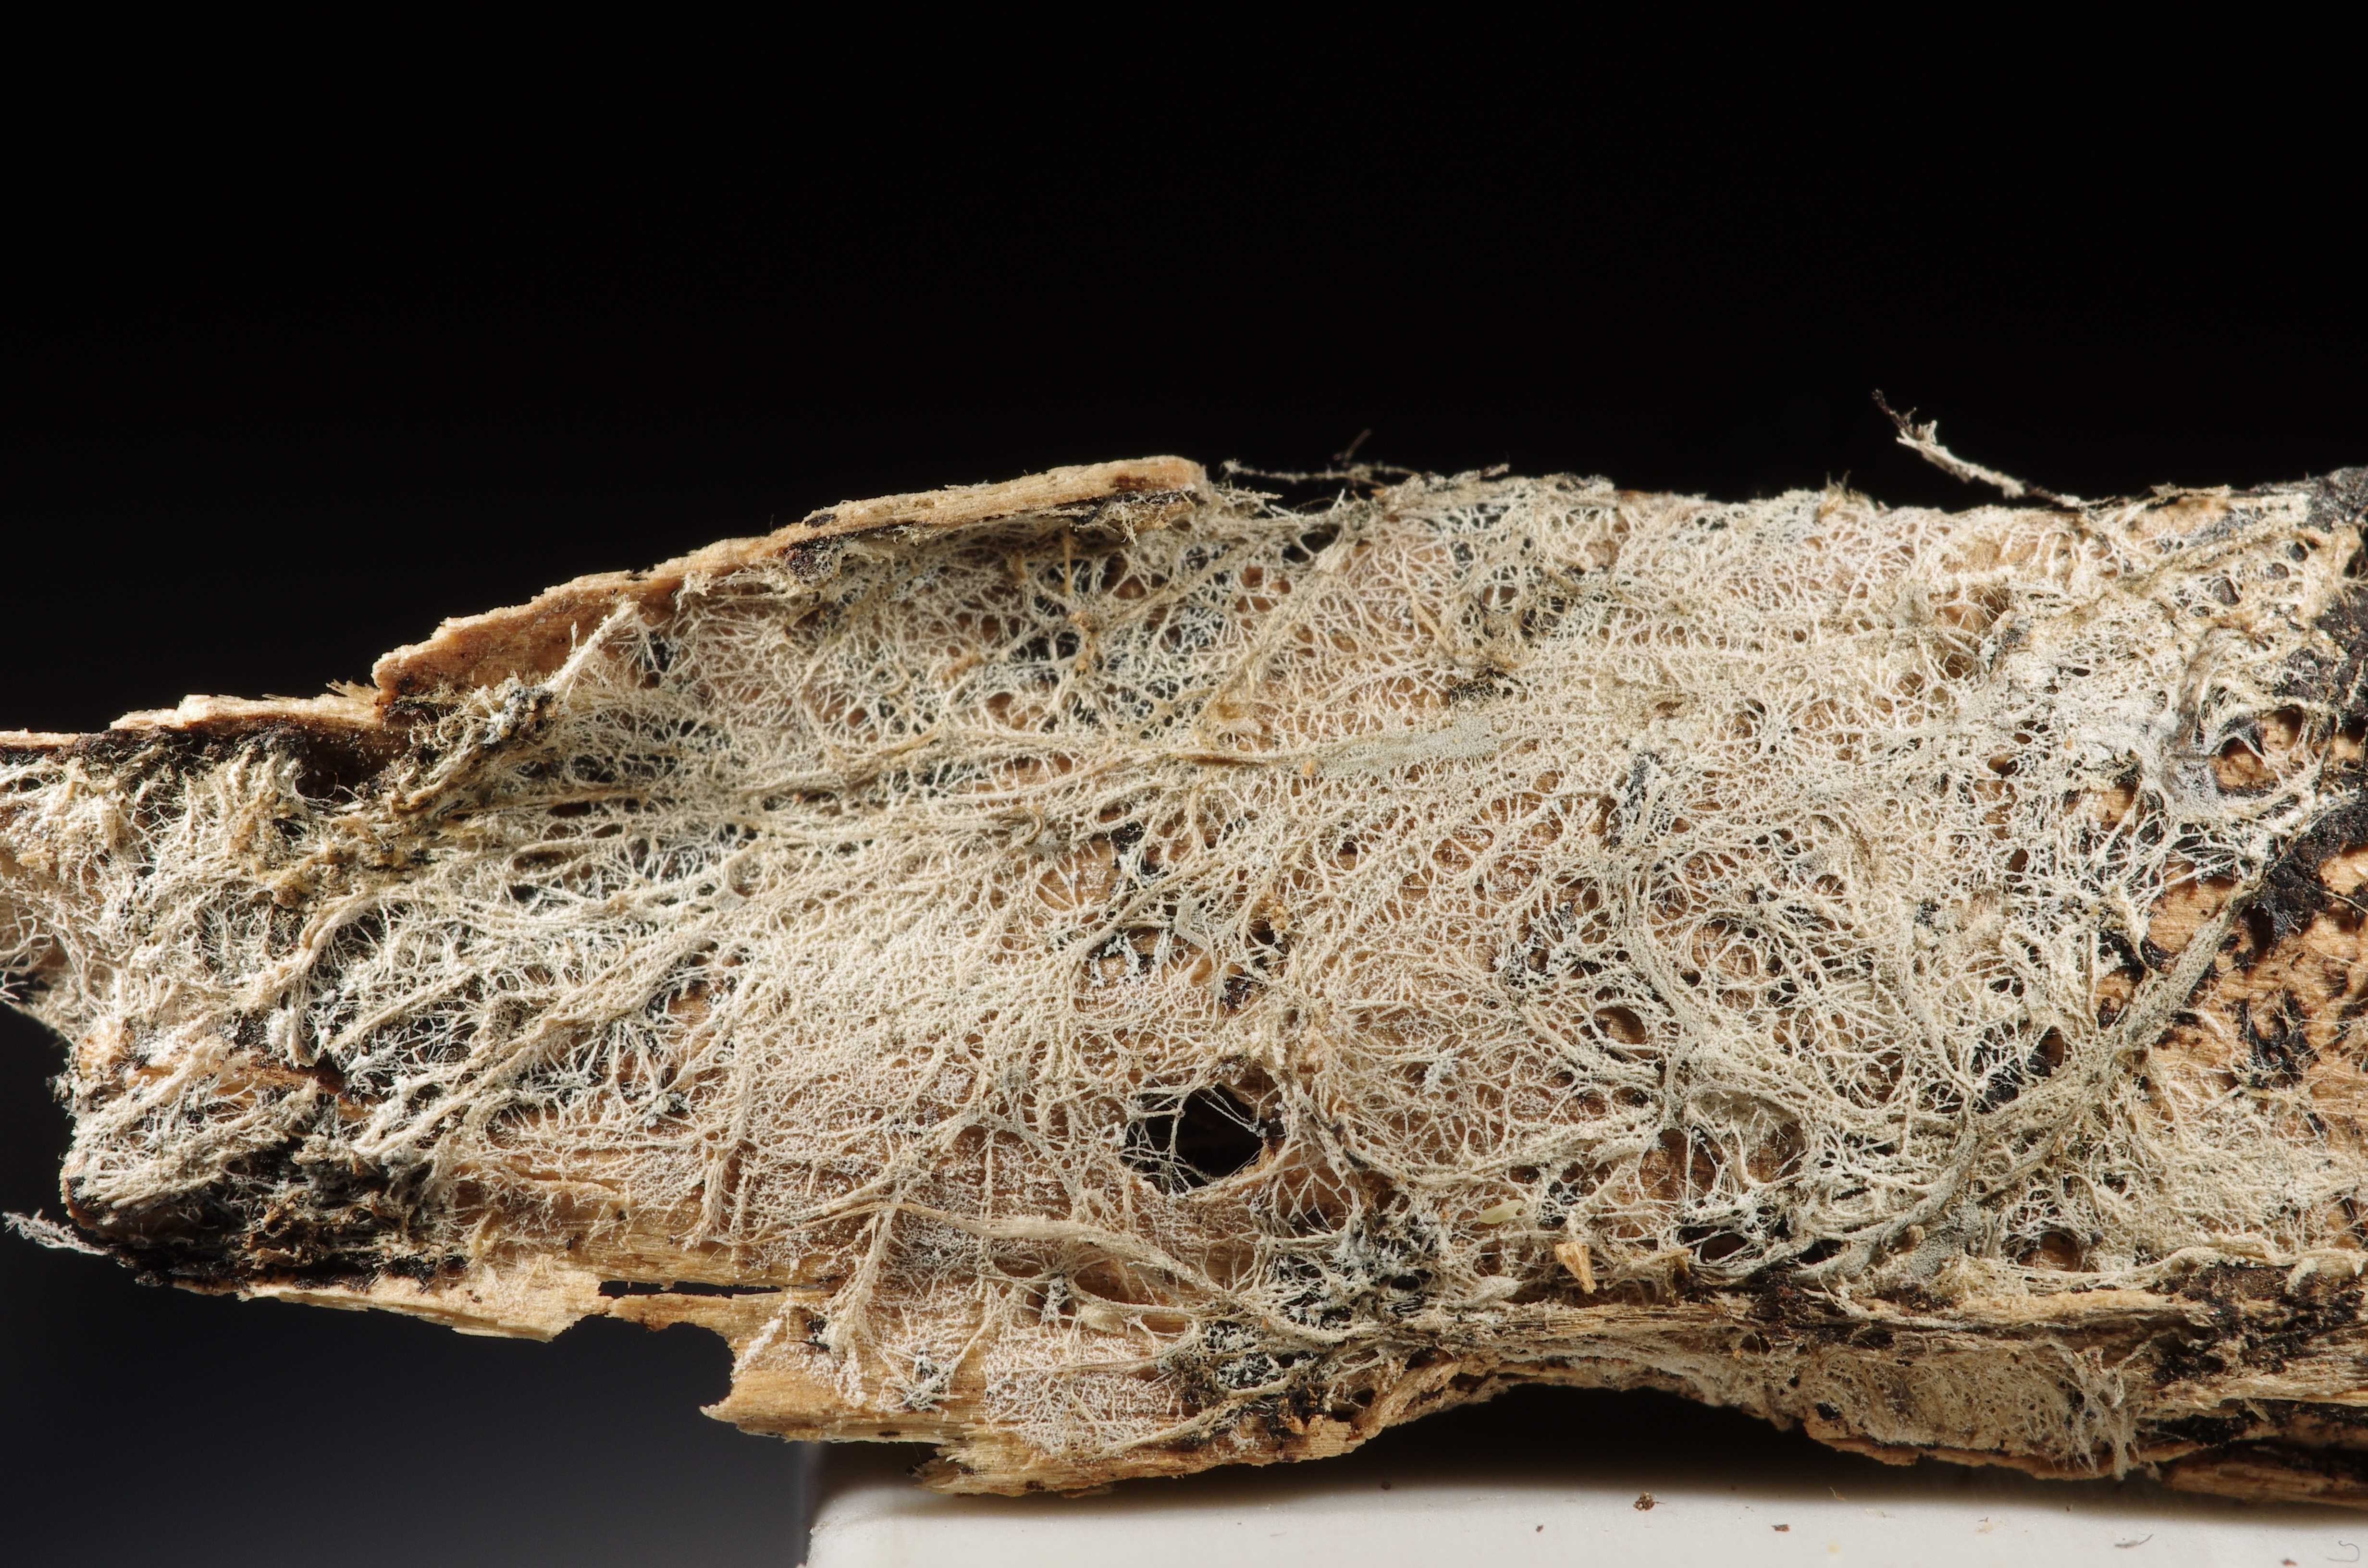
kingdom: Fungi
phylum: Basidiomycota
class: Agaricomycetes
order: Russulales
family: Xenasmataceae
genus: Xenasmatella
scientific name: Xenasmatella christiansenii
